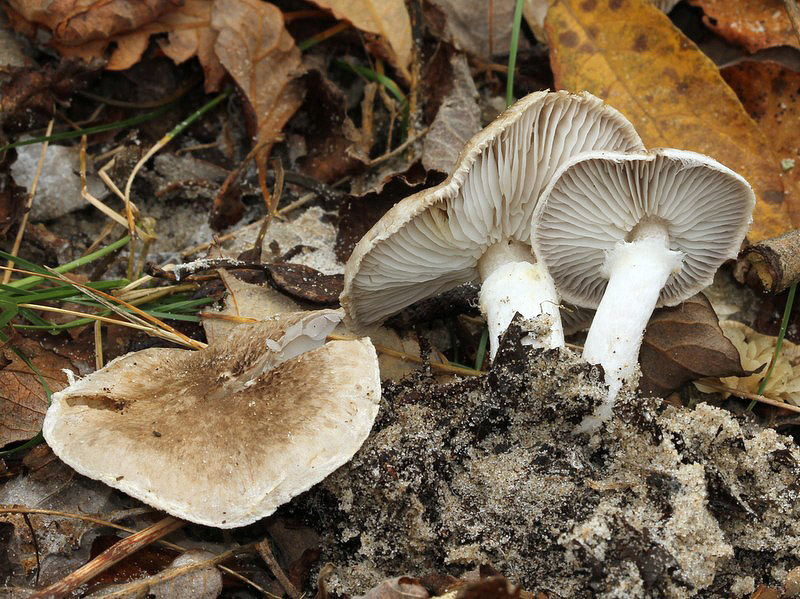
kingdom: Fungi
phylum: Basidiomycota
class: Agaricomycetes
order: Agaricales
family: Tricholomataceae
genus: Tricholoma
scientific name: Tricholoma cingulatum
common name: ring-ridderhat
